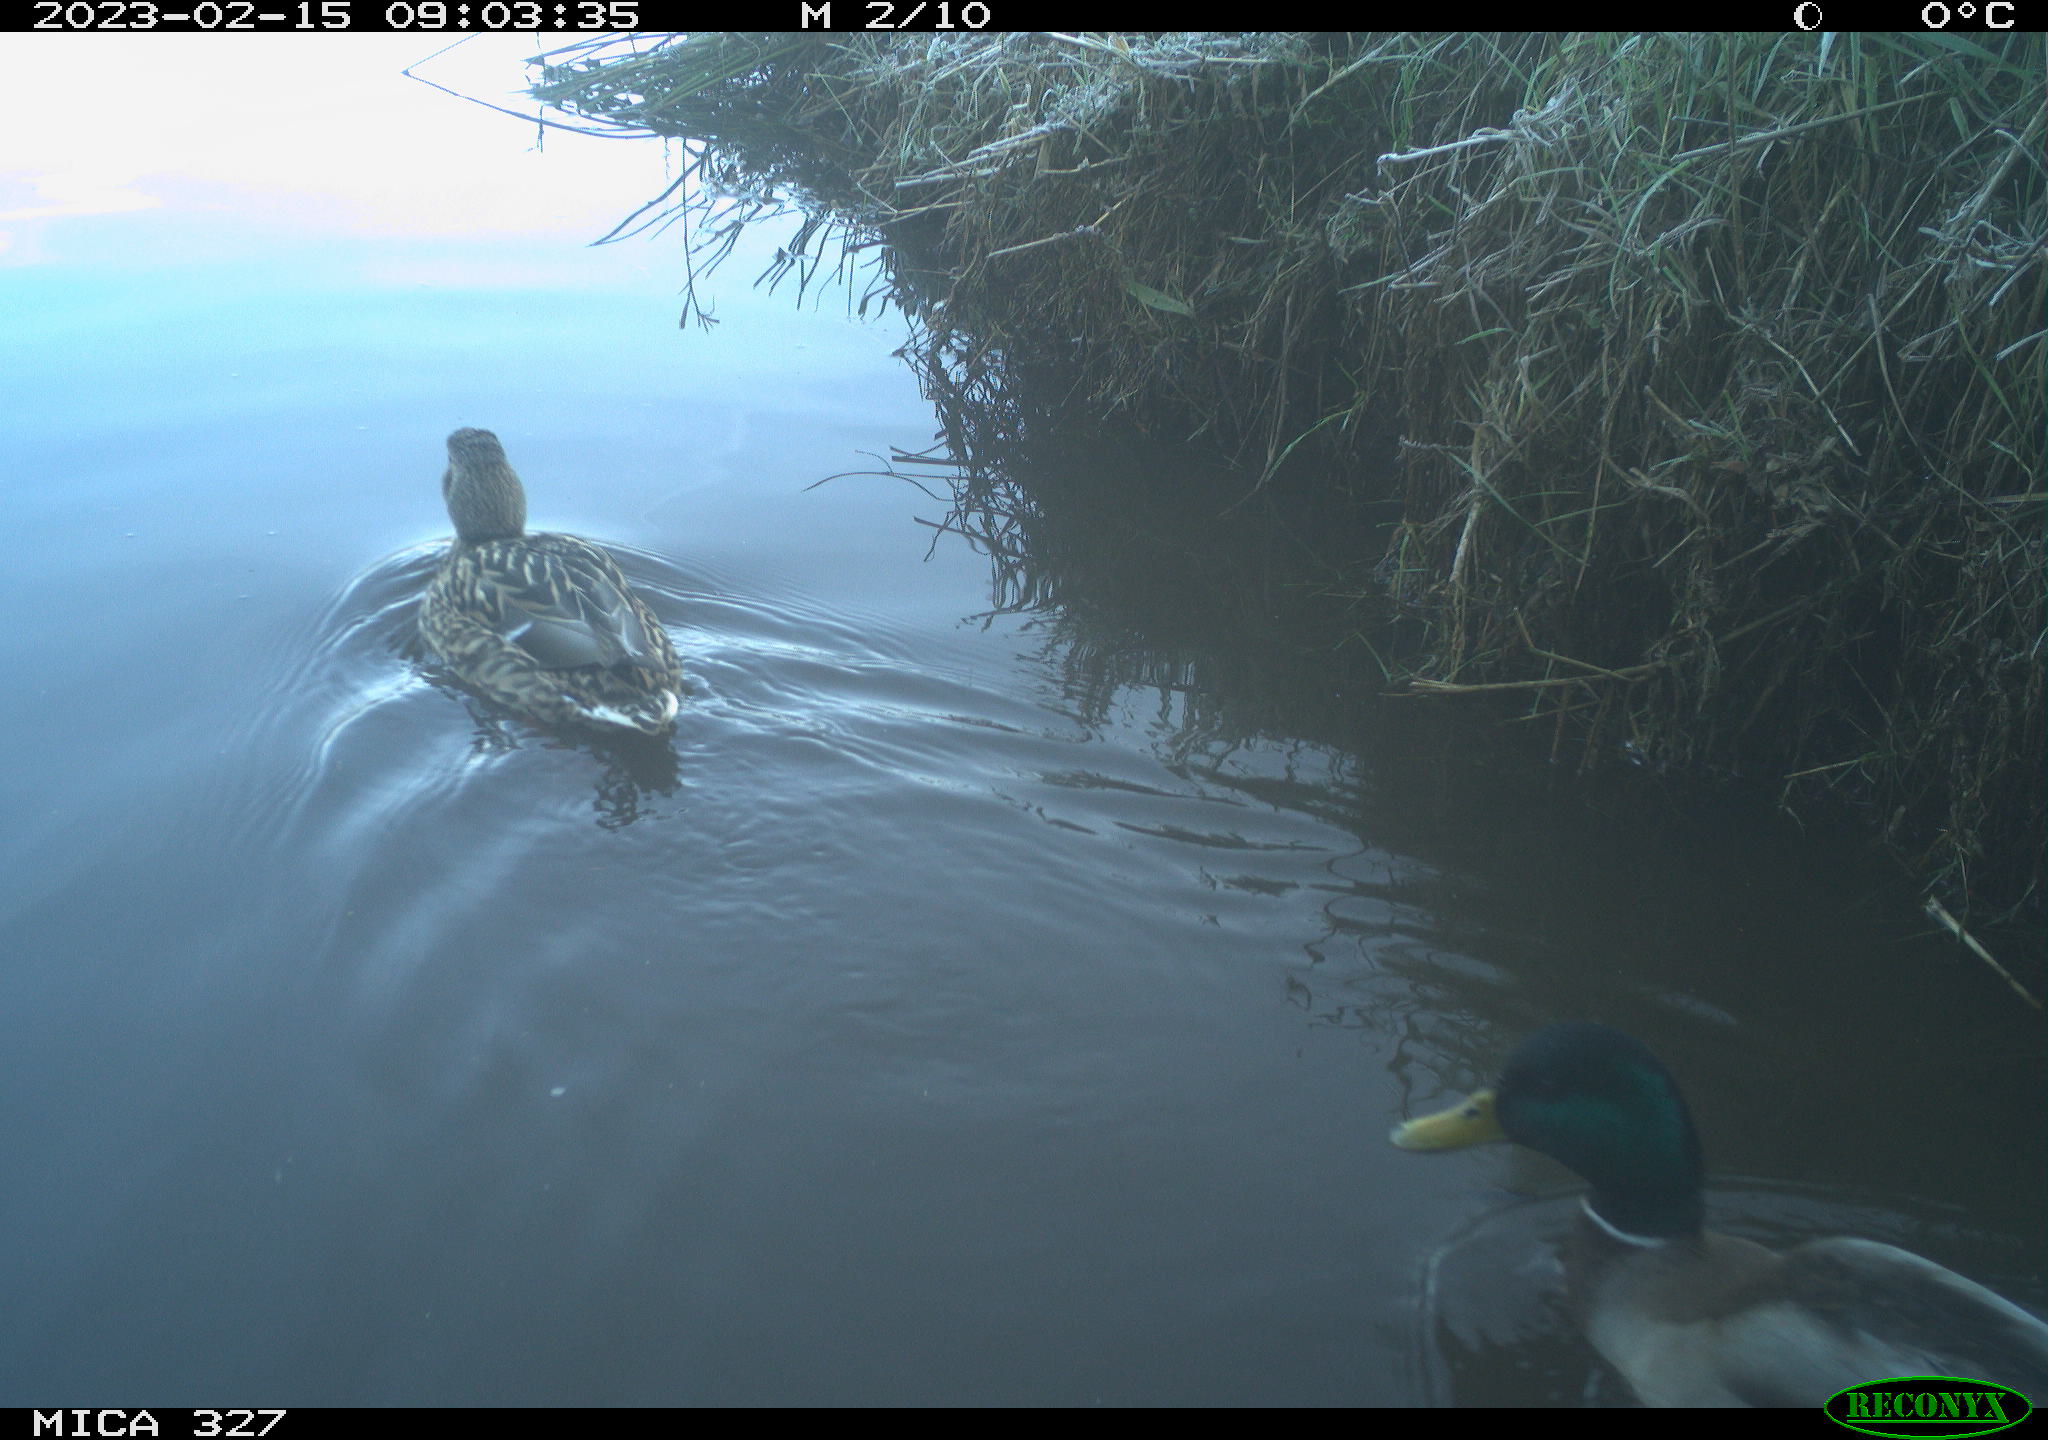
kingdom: Animalia
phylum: Chordata
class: Aves
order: Anseriformes
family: Anatidae
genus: Anas
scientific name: Anas
